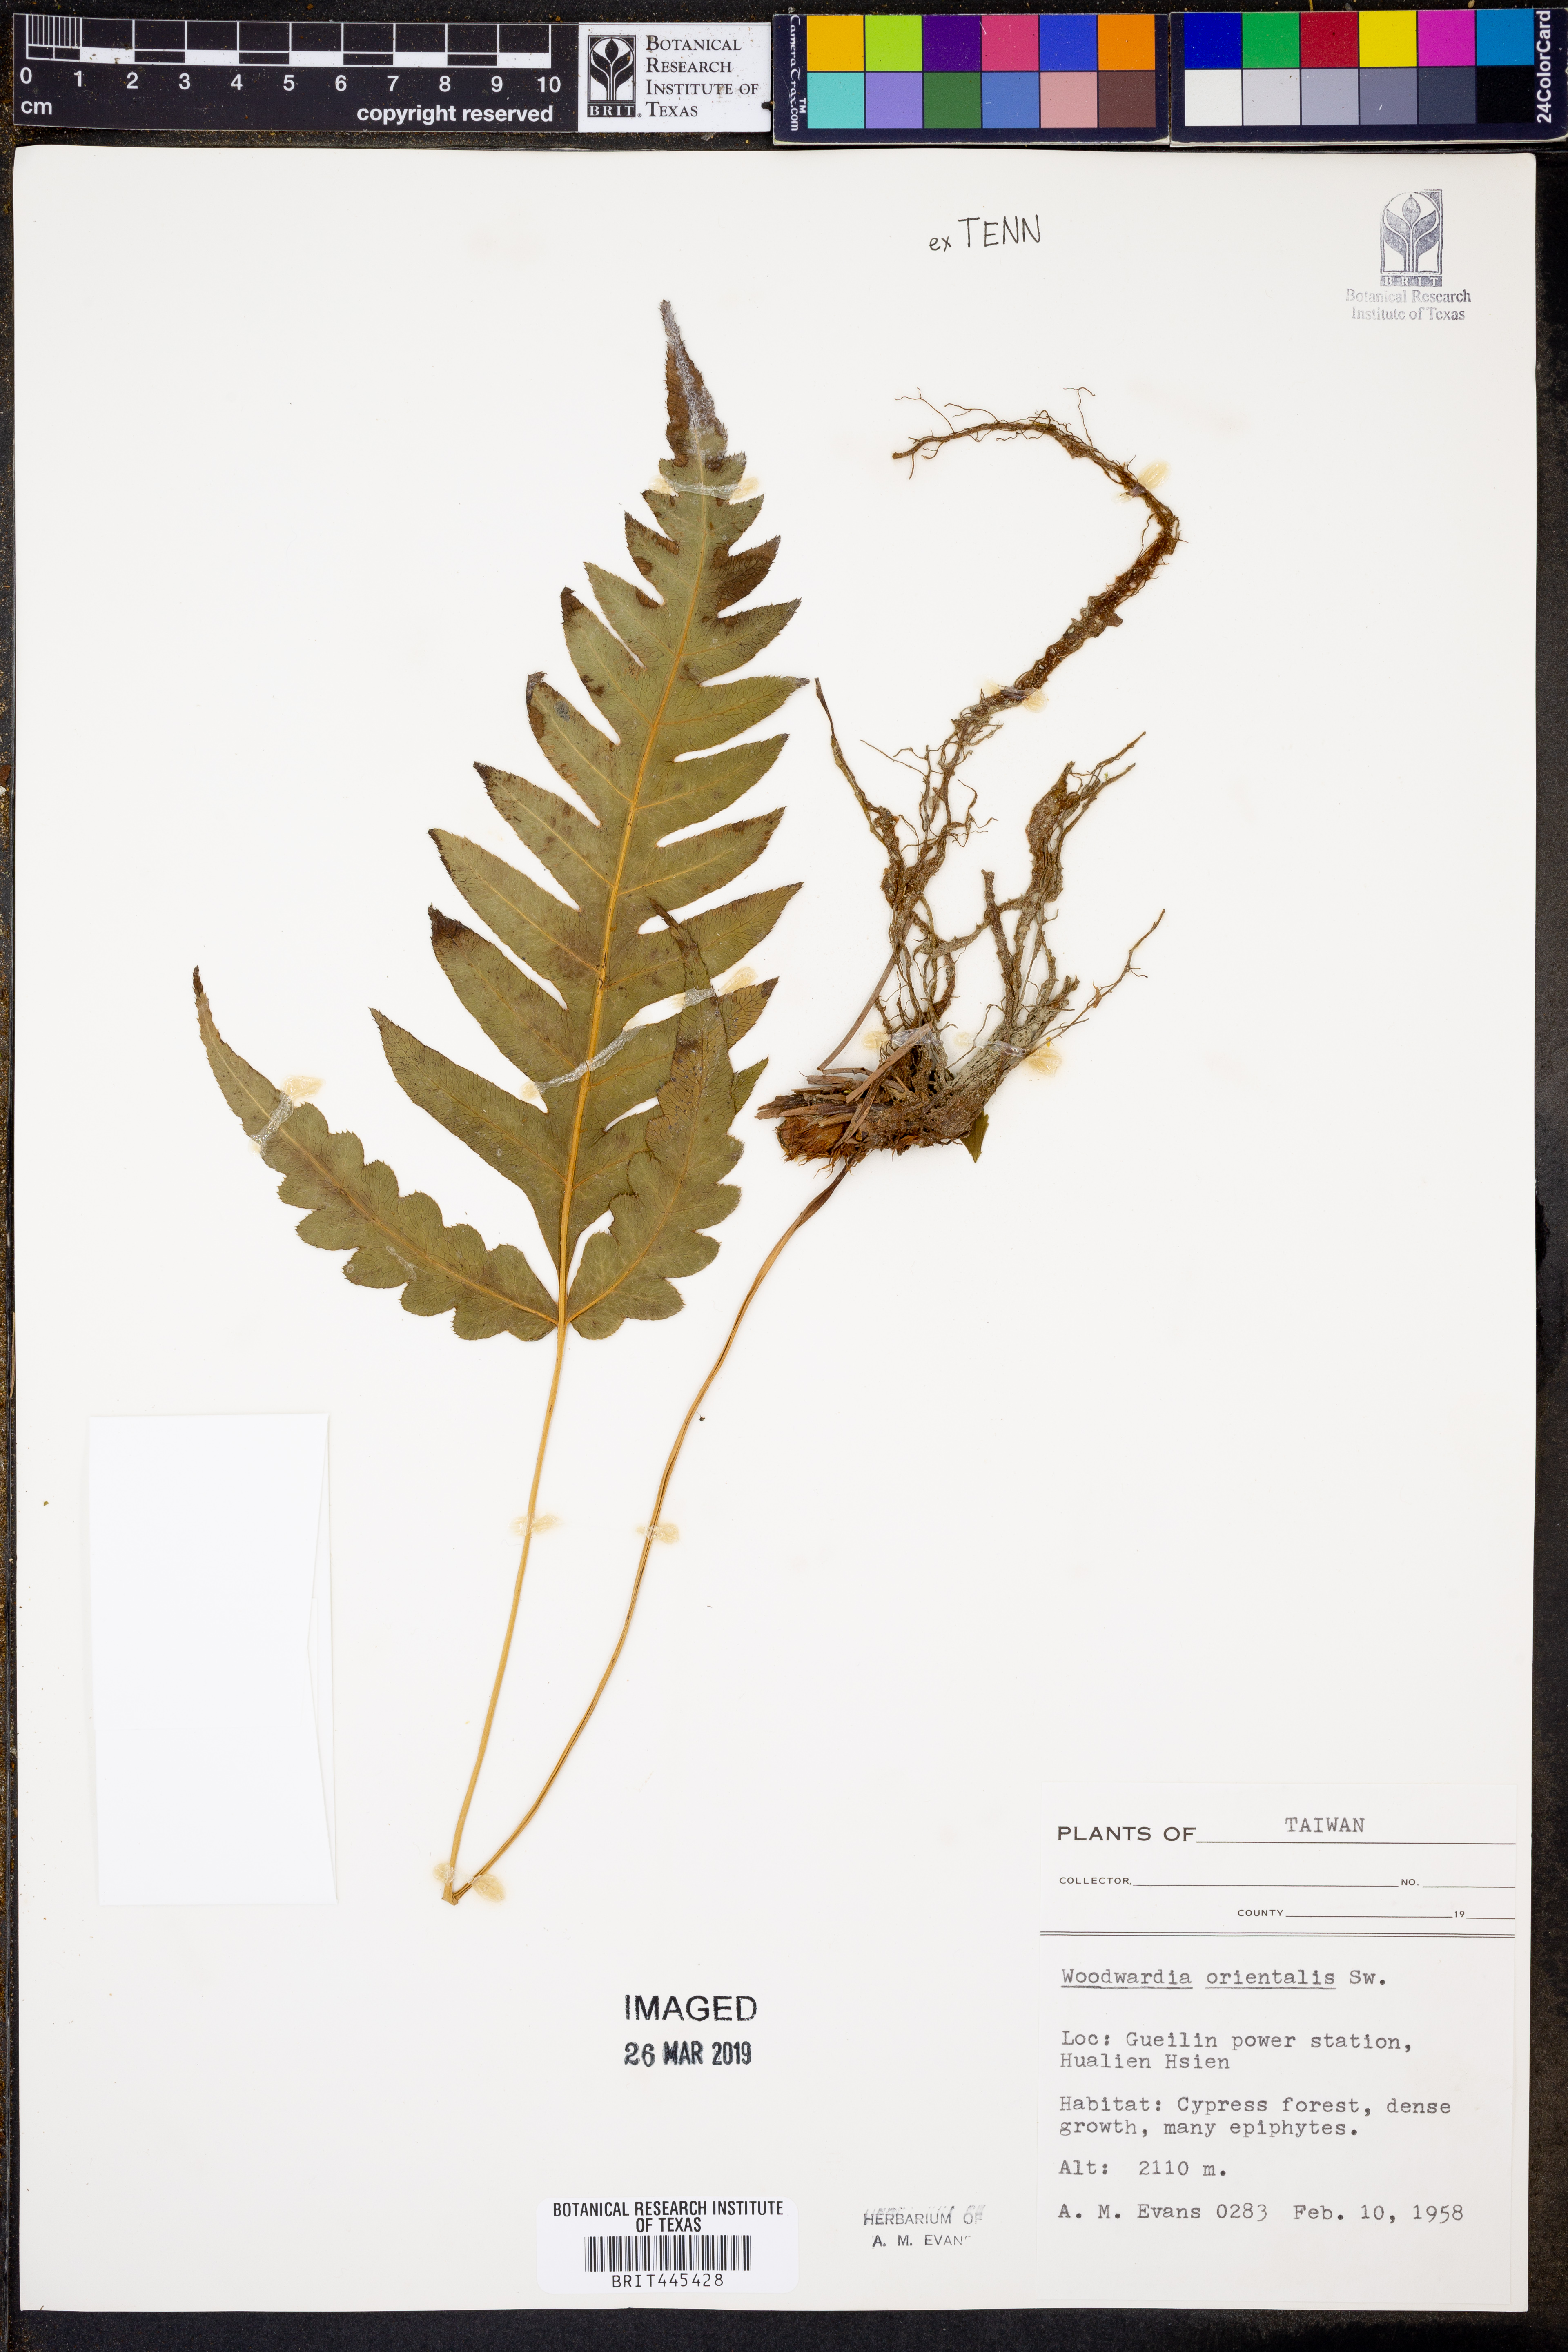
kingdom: Plantae
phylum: Tracheophyta
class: Polypodiopsida
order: Polypodiales
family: Blechnaceae
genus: Woodwardia
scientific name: Woodwardia orientalis
